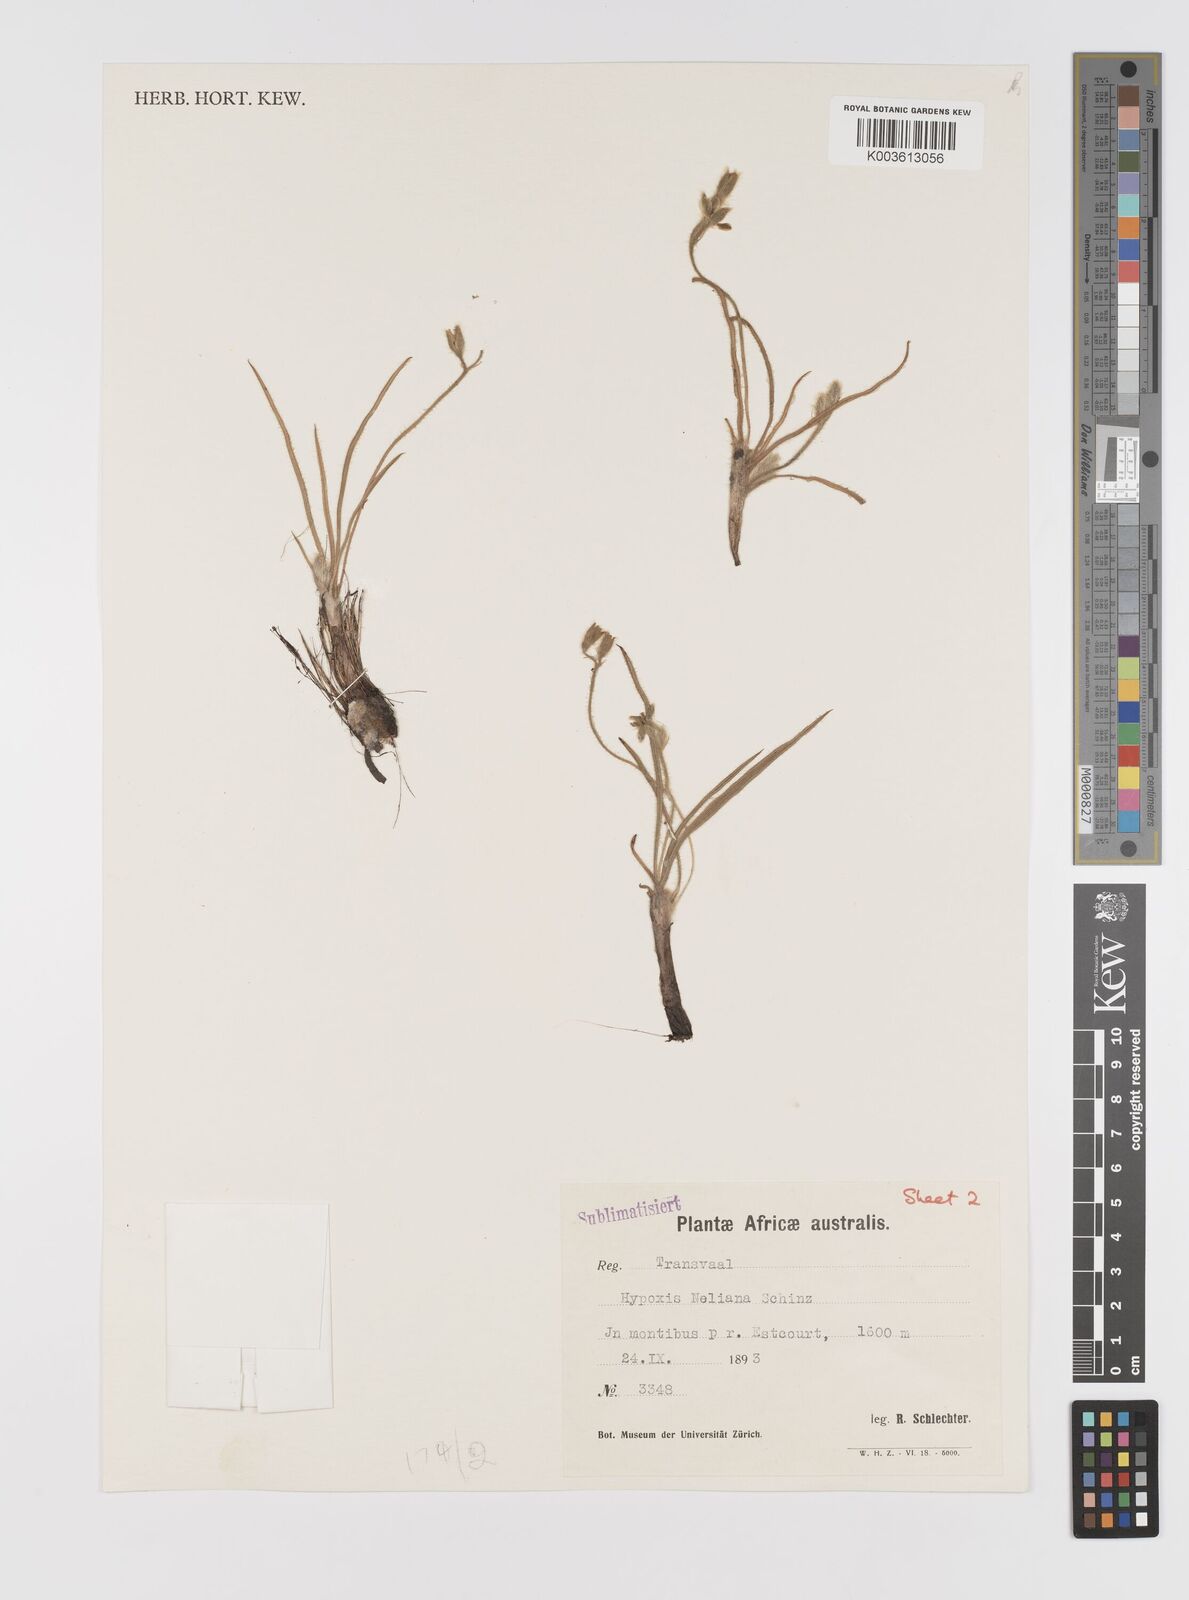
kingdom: Plantae
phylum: Tracheophyta
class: Liliopsida
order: Asparagales
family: Hypoxidaceae
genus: Hypoxis
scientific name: Hypoxis neliana
